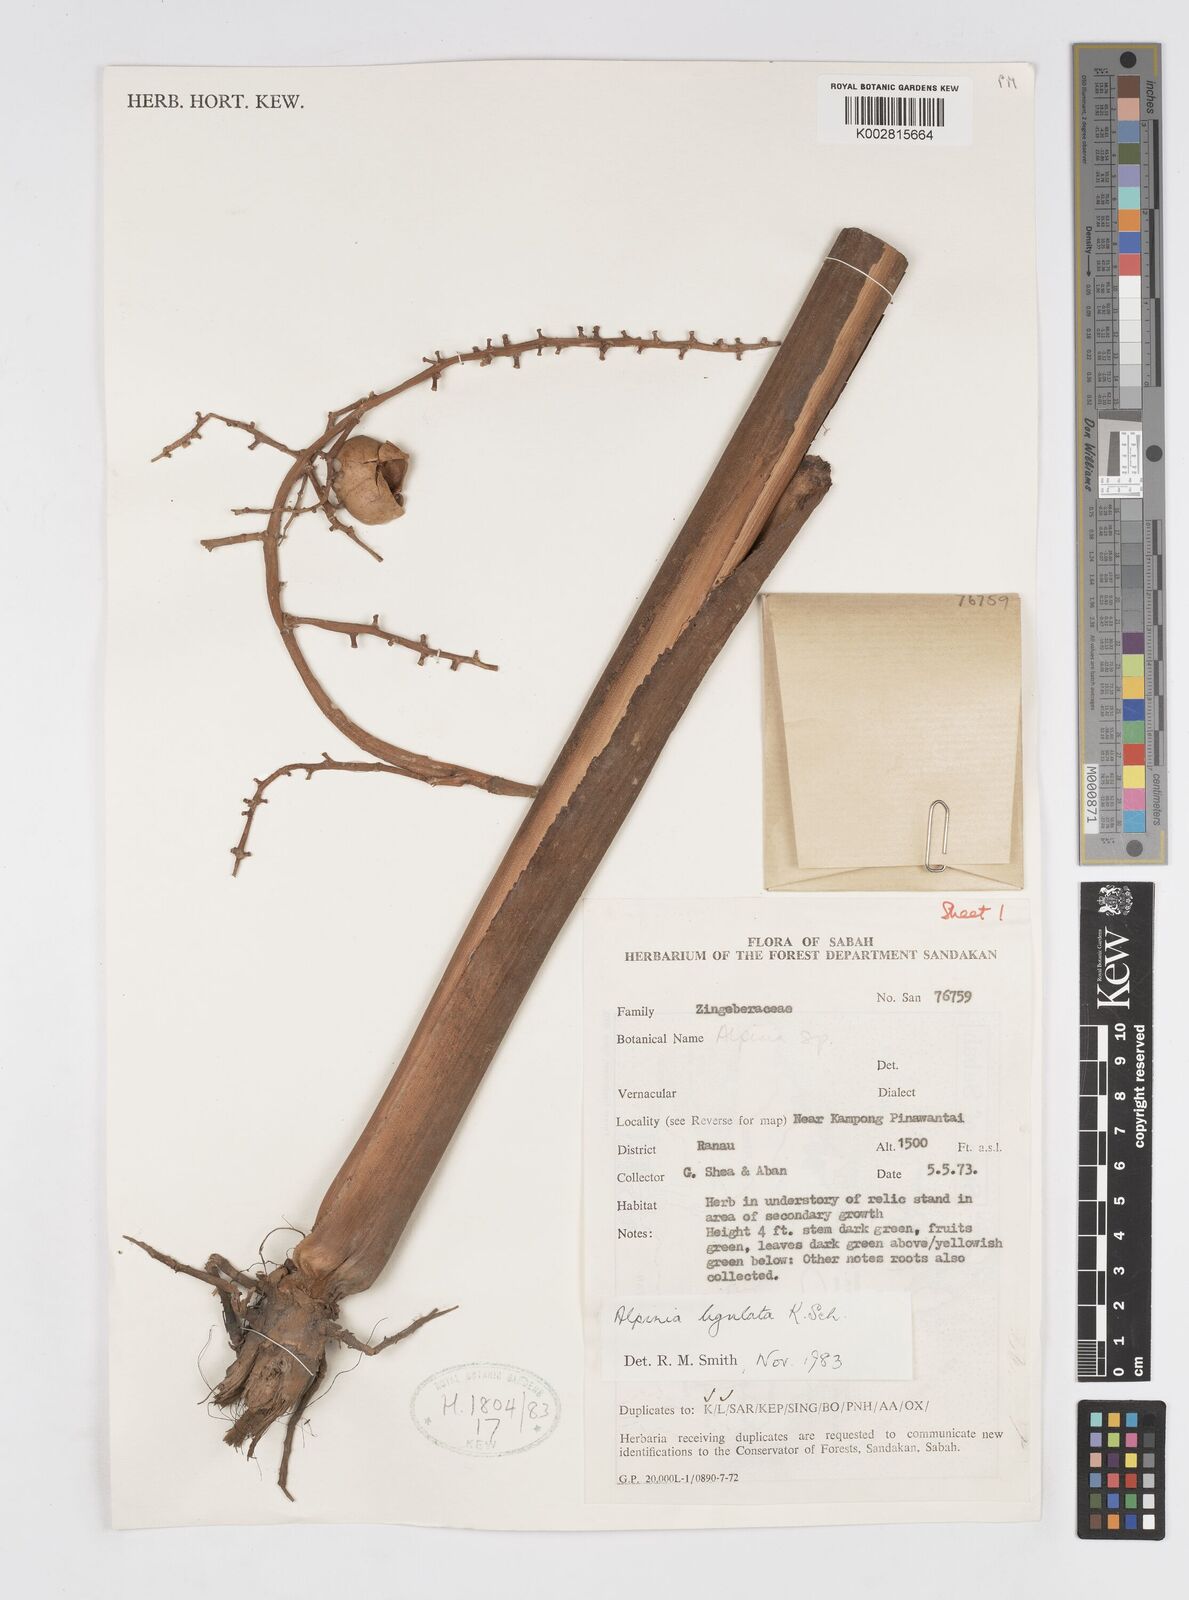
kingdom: Plantae
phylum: Tracheophyta
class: Liliopsida
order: Zingiberales
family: Zingiberaceae
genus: Alpinia
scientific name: Alpinia ligulata
